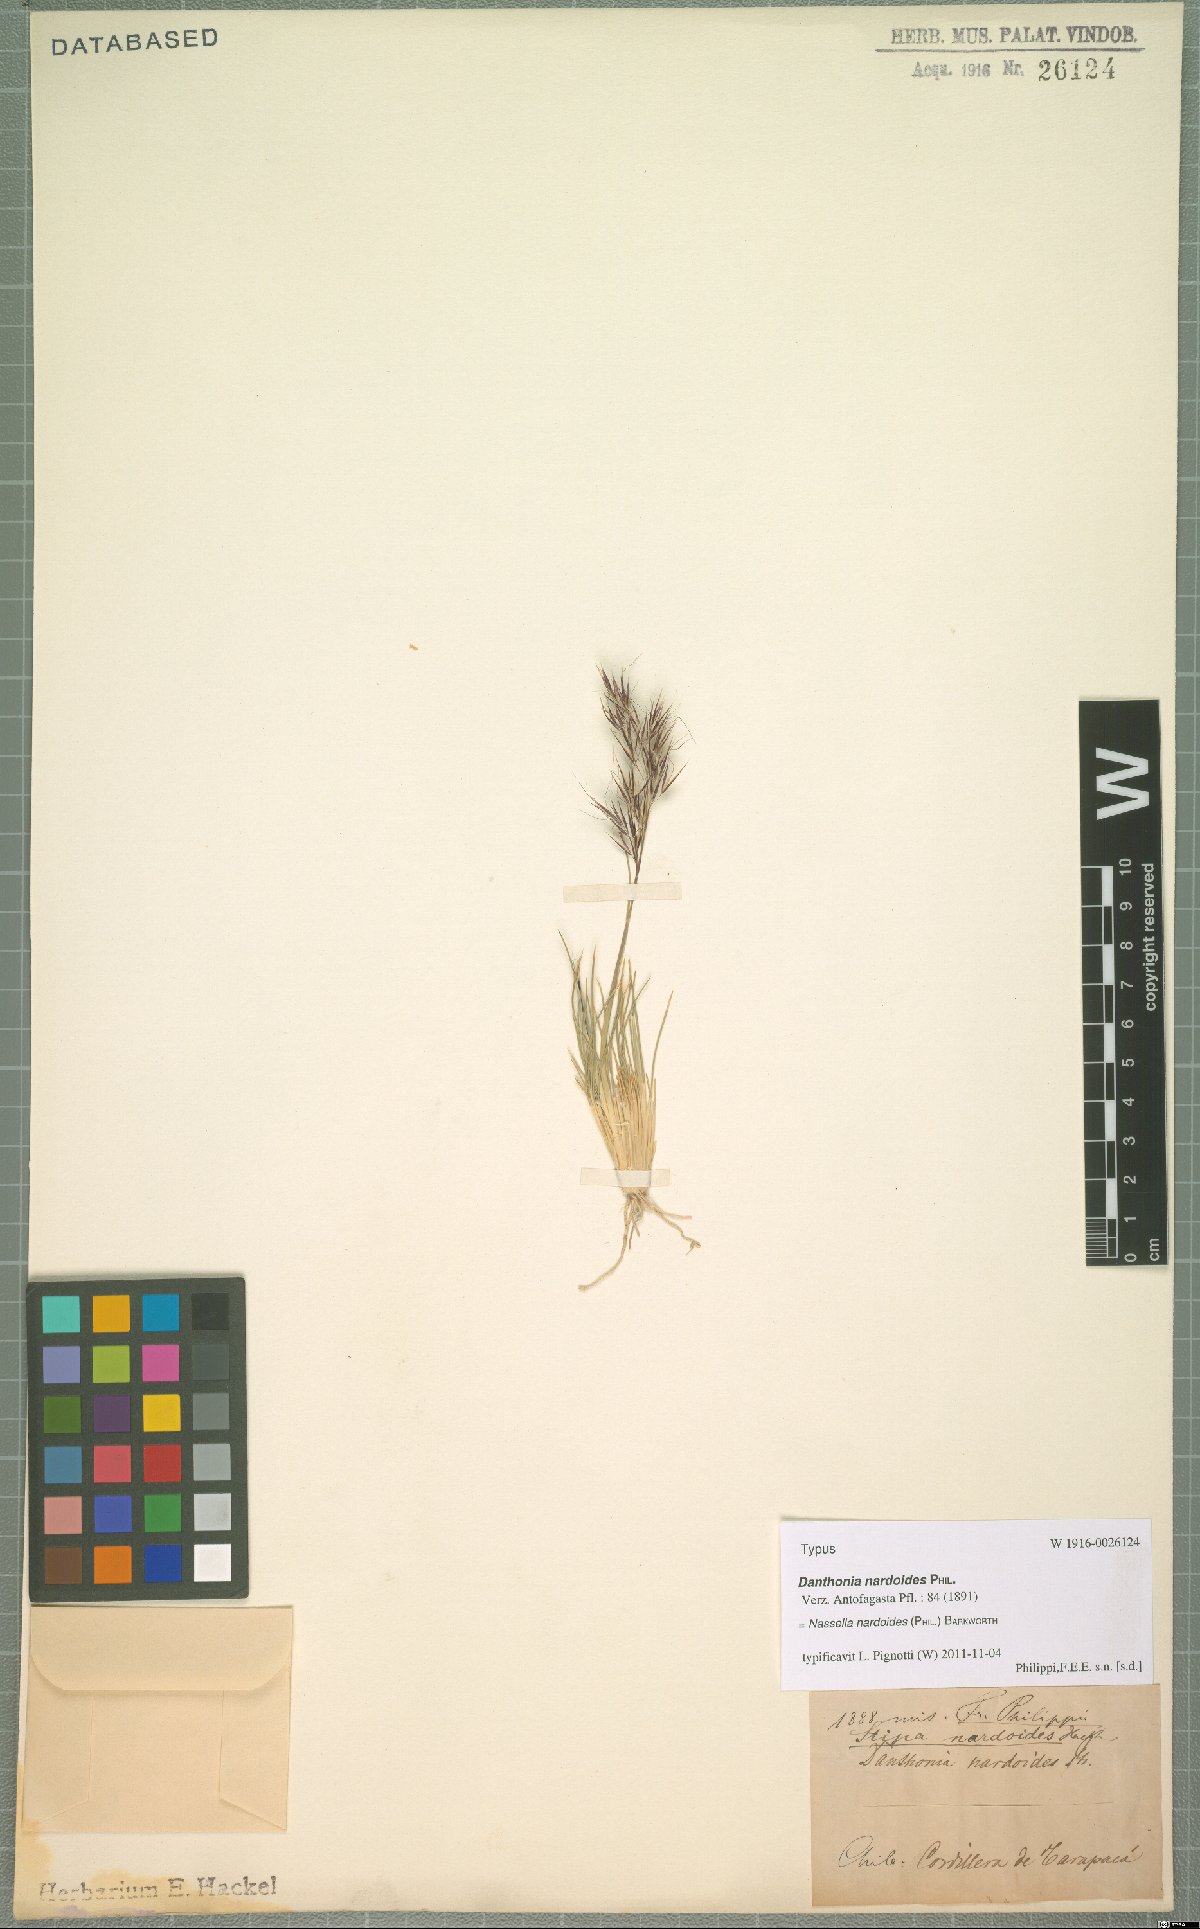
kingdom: Plantae
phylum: Tracheophyta
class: Liliopsida
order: Poales
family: Poaceae
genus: Nassella
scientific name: Nassella nardoides
